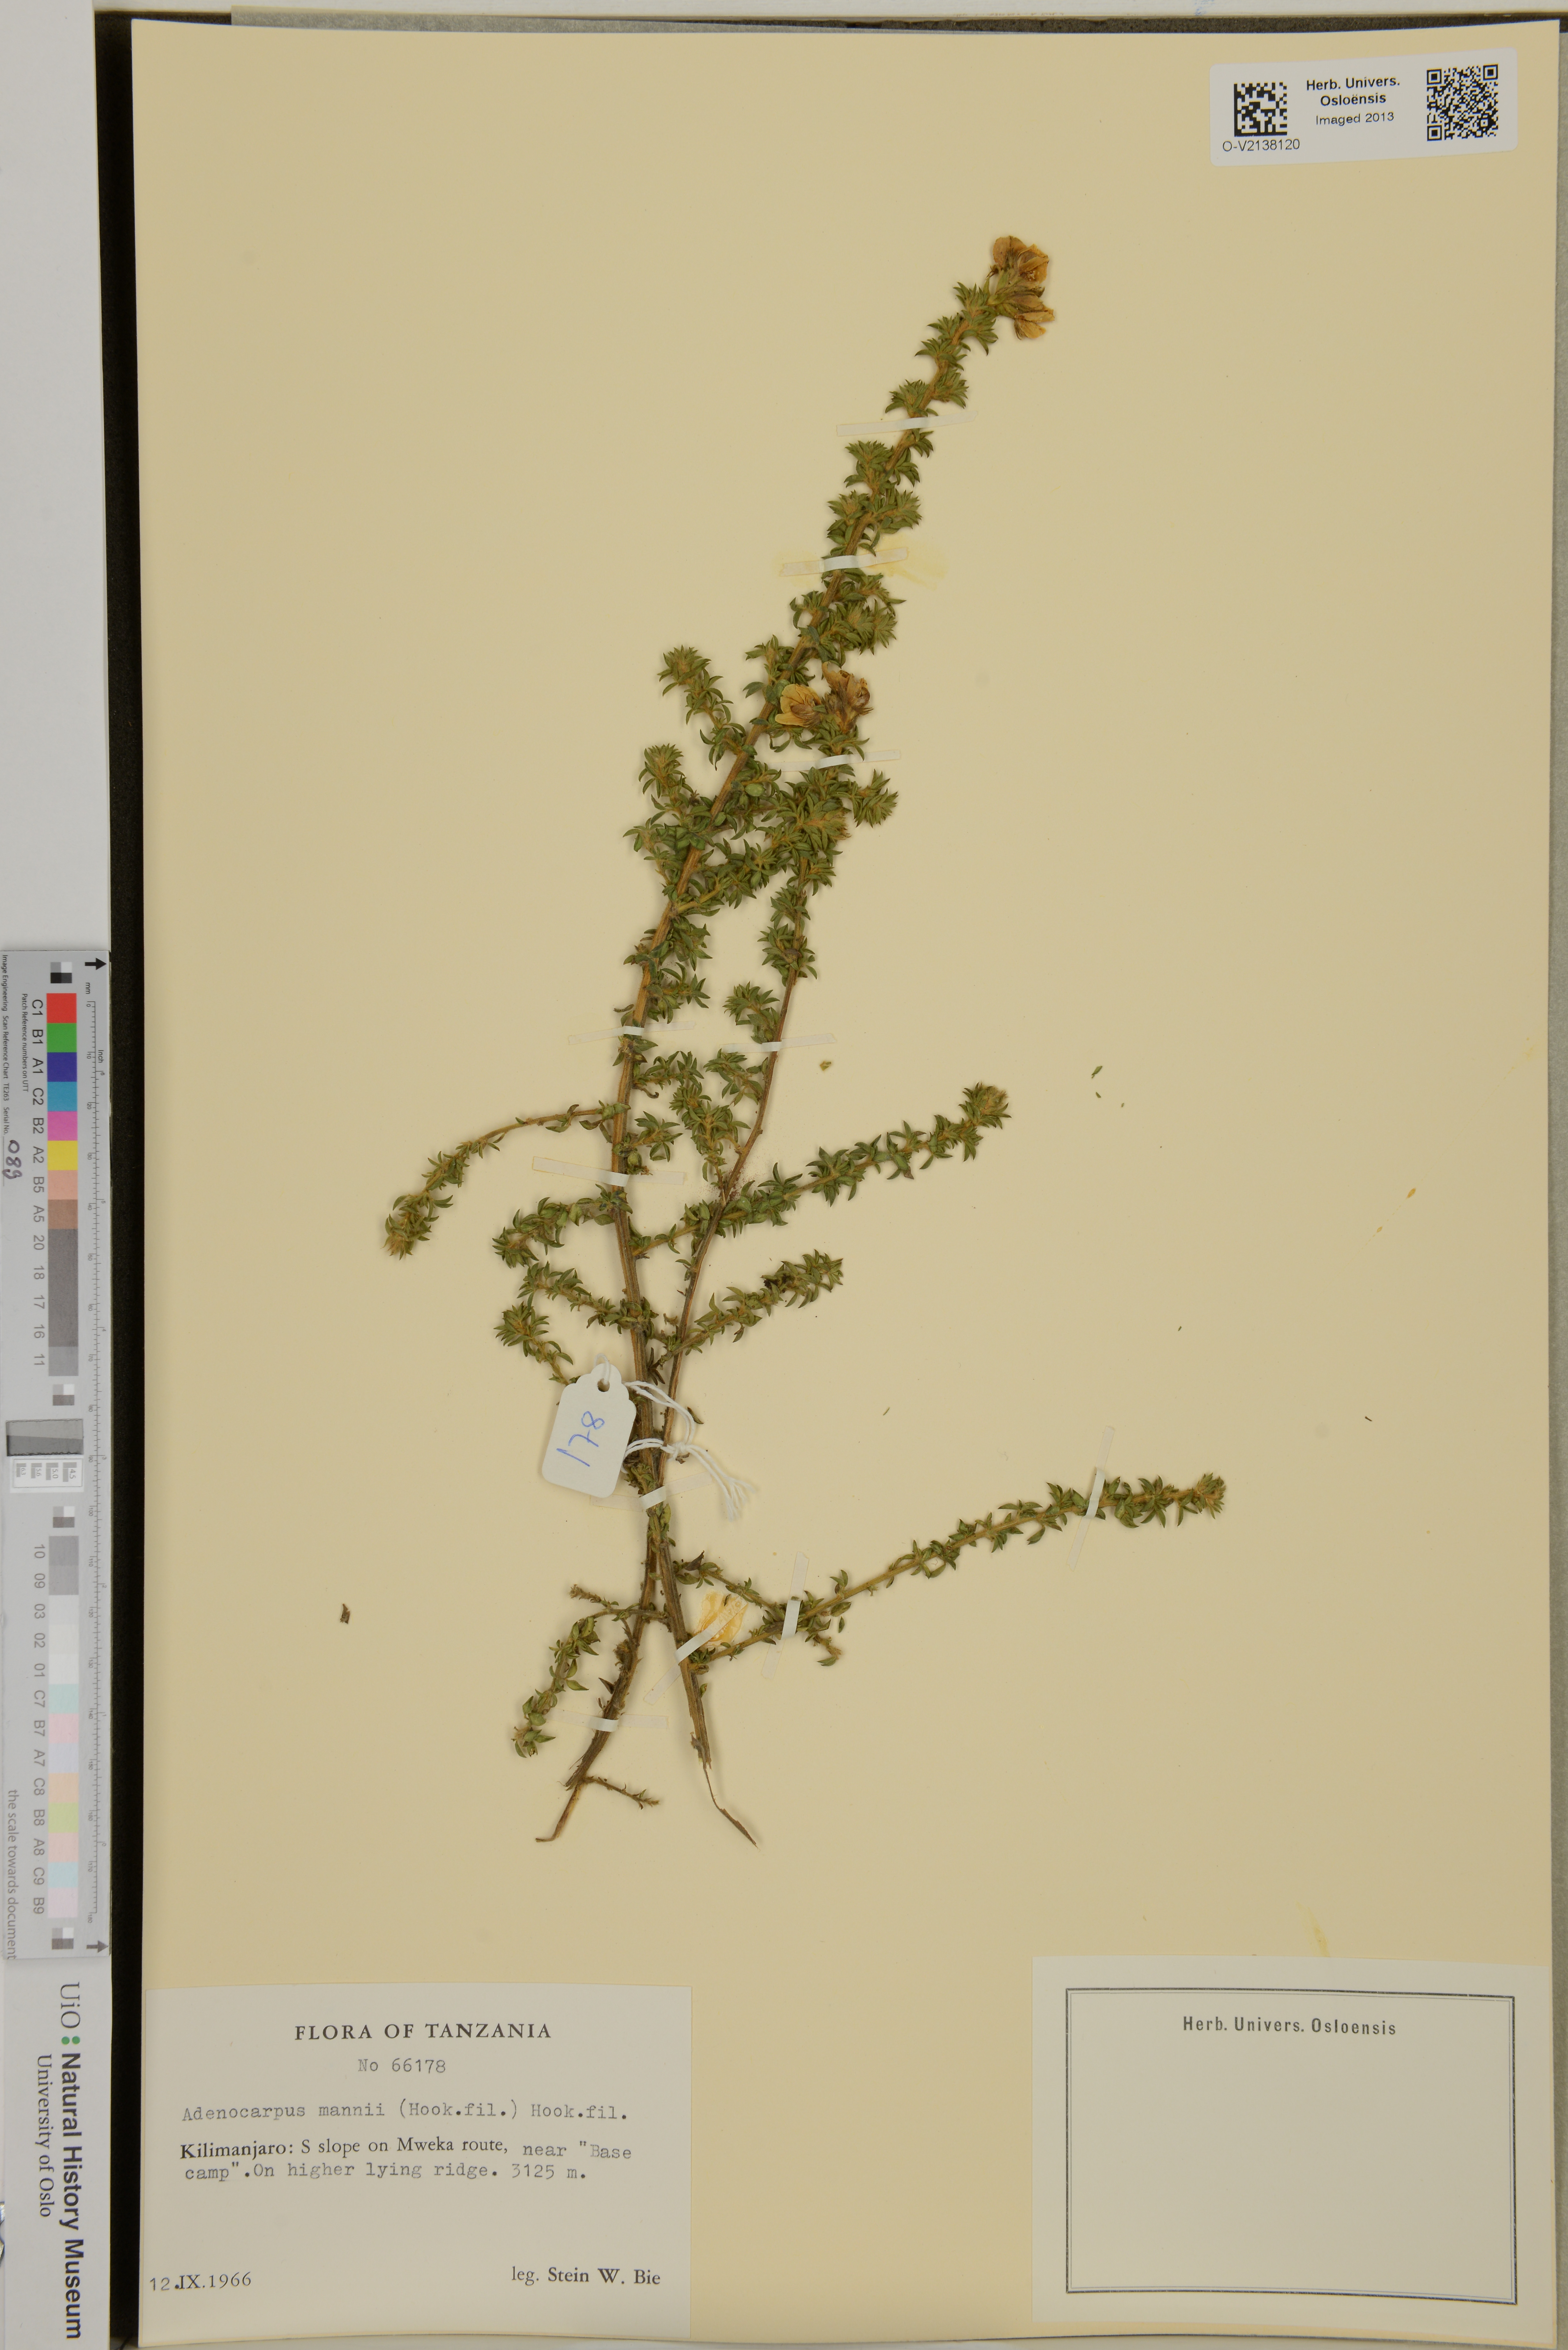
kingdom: Plantae
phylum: Tracheophyta
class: Magnoliopsida
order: Fabales
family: Fabaceae
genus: Adenocarpus
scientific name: Adenocarpus mannii
